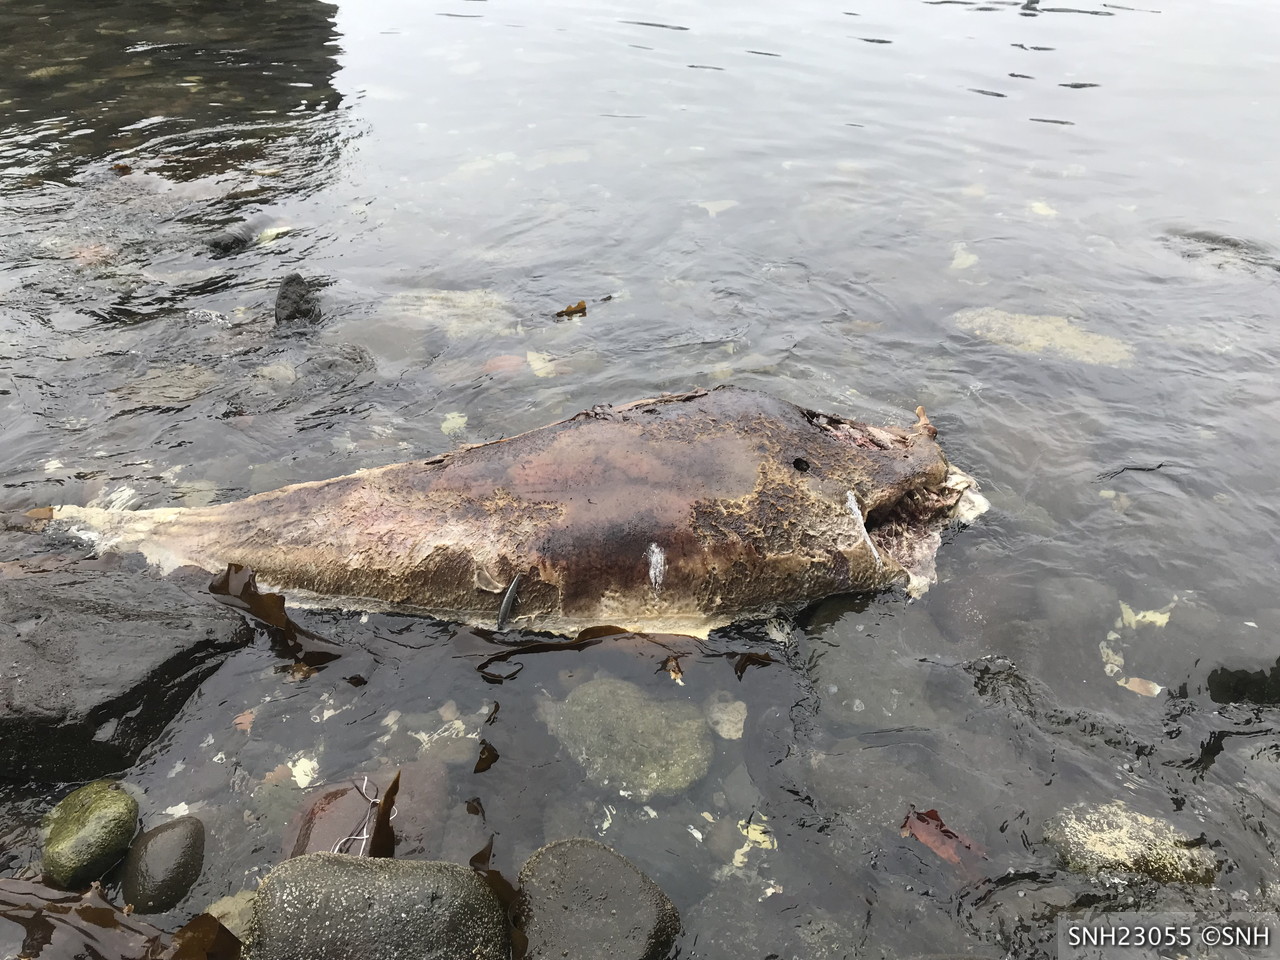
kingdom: Animalia
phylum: Chordata
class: Mammalia
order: Cetacea
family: Phocoenidae
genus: Phocoenoides
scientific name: Phocoenoides dalli
